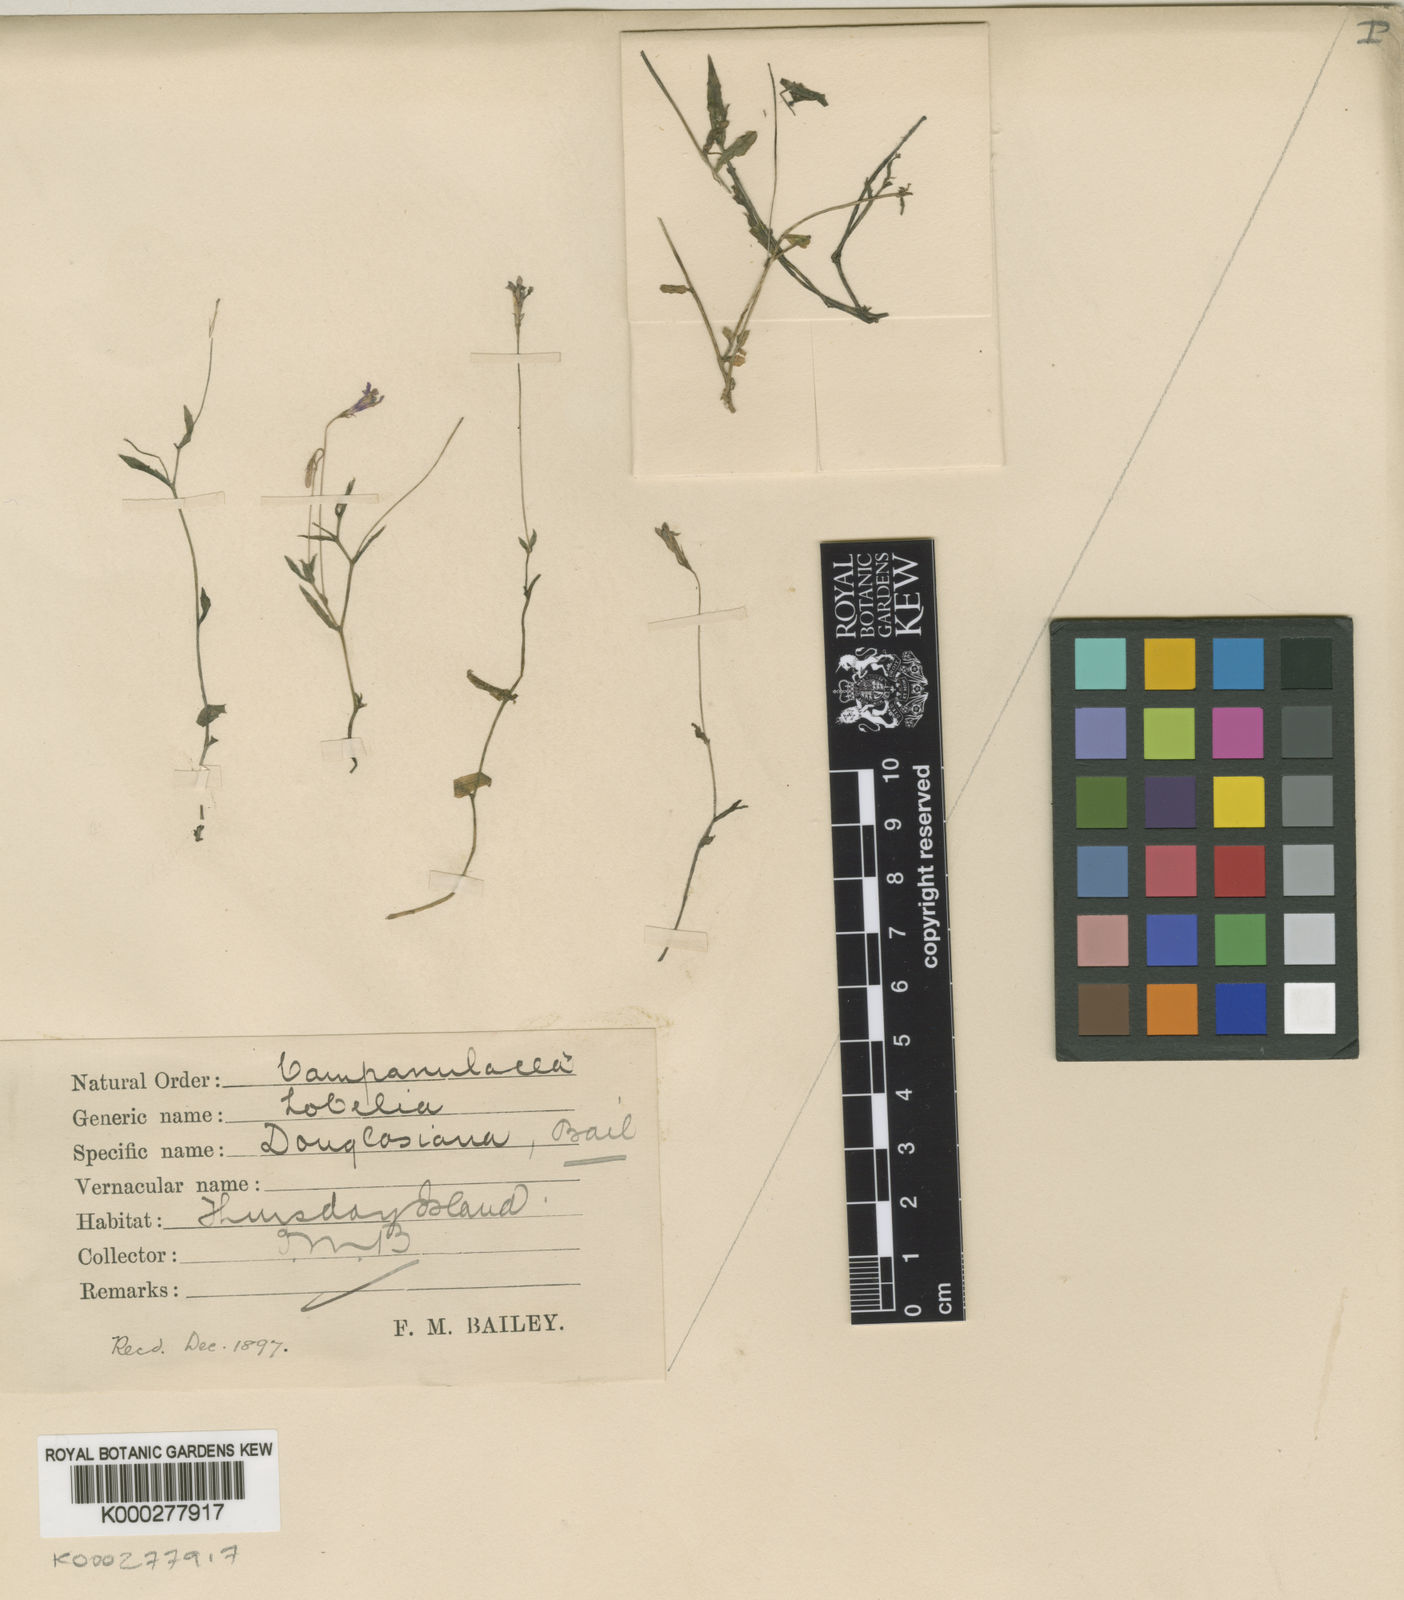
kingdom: Plantae
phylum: Tracheophyta
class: Magnoliopsida
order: Asterales
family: Campanulaceae
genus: Lobelia
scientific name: Lobelia stenophylla
